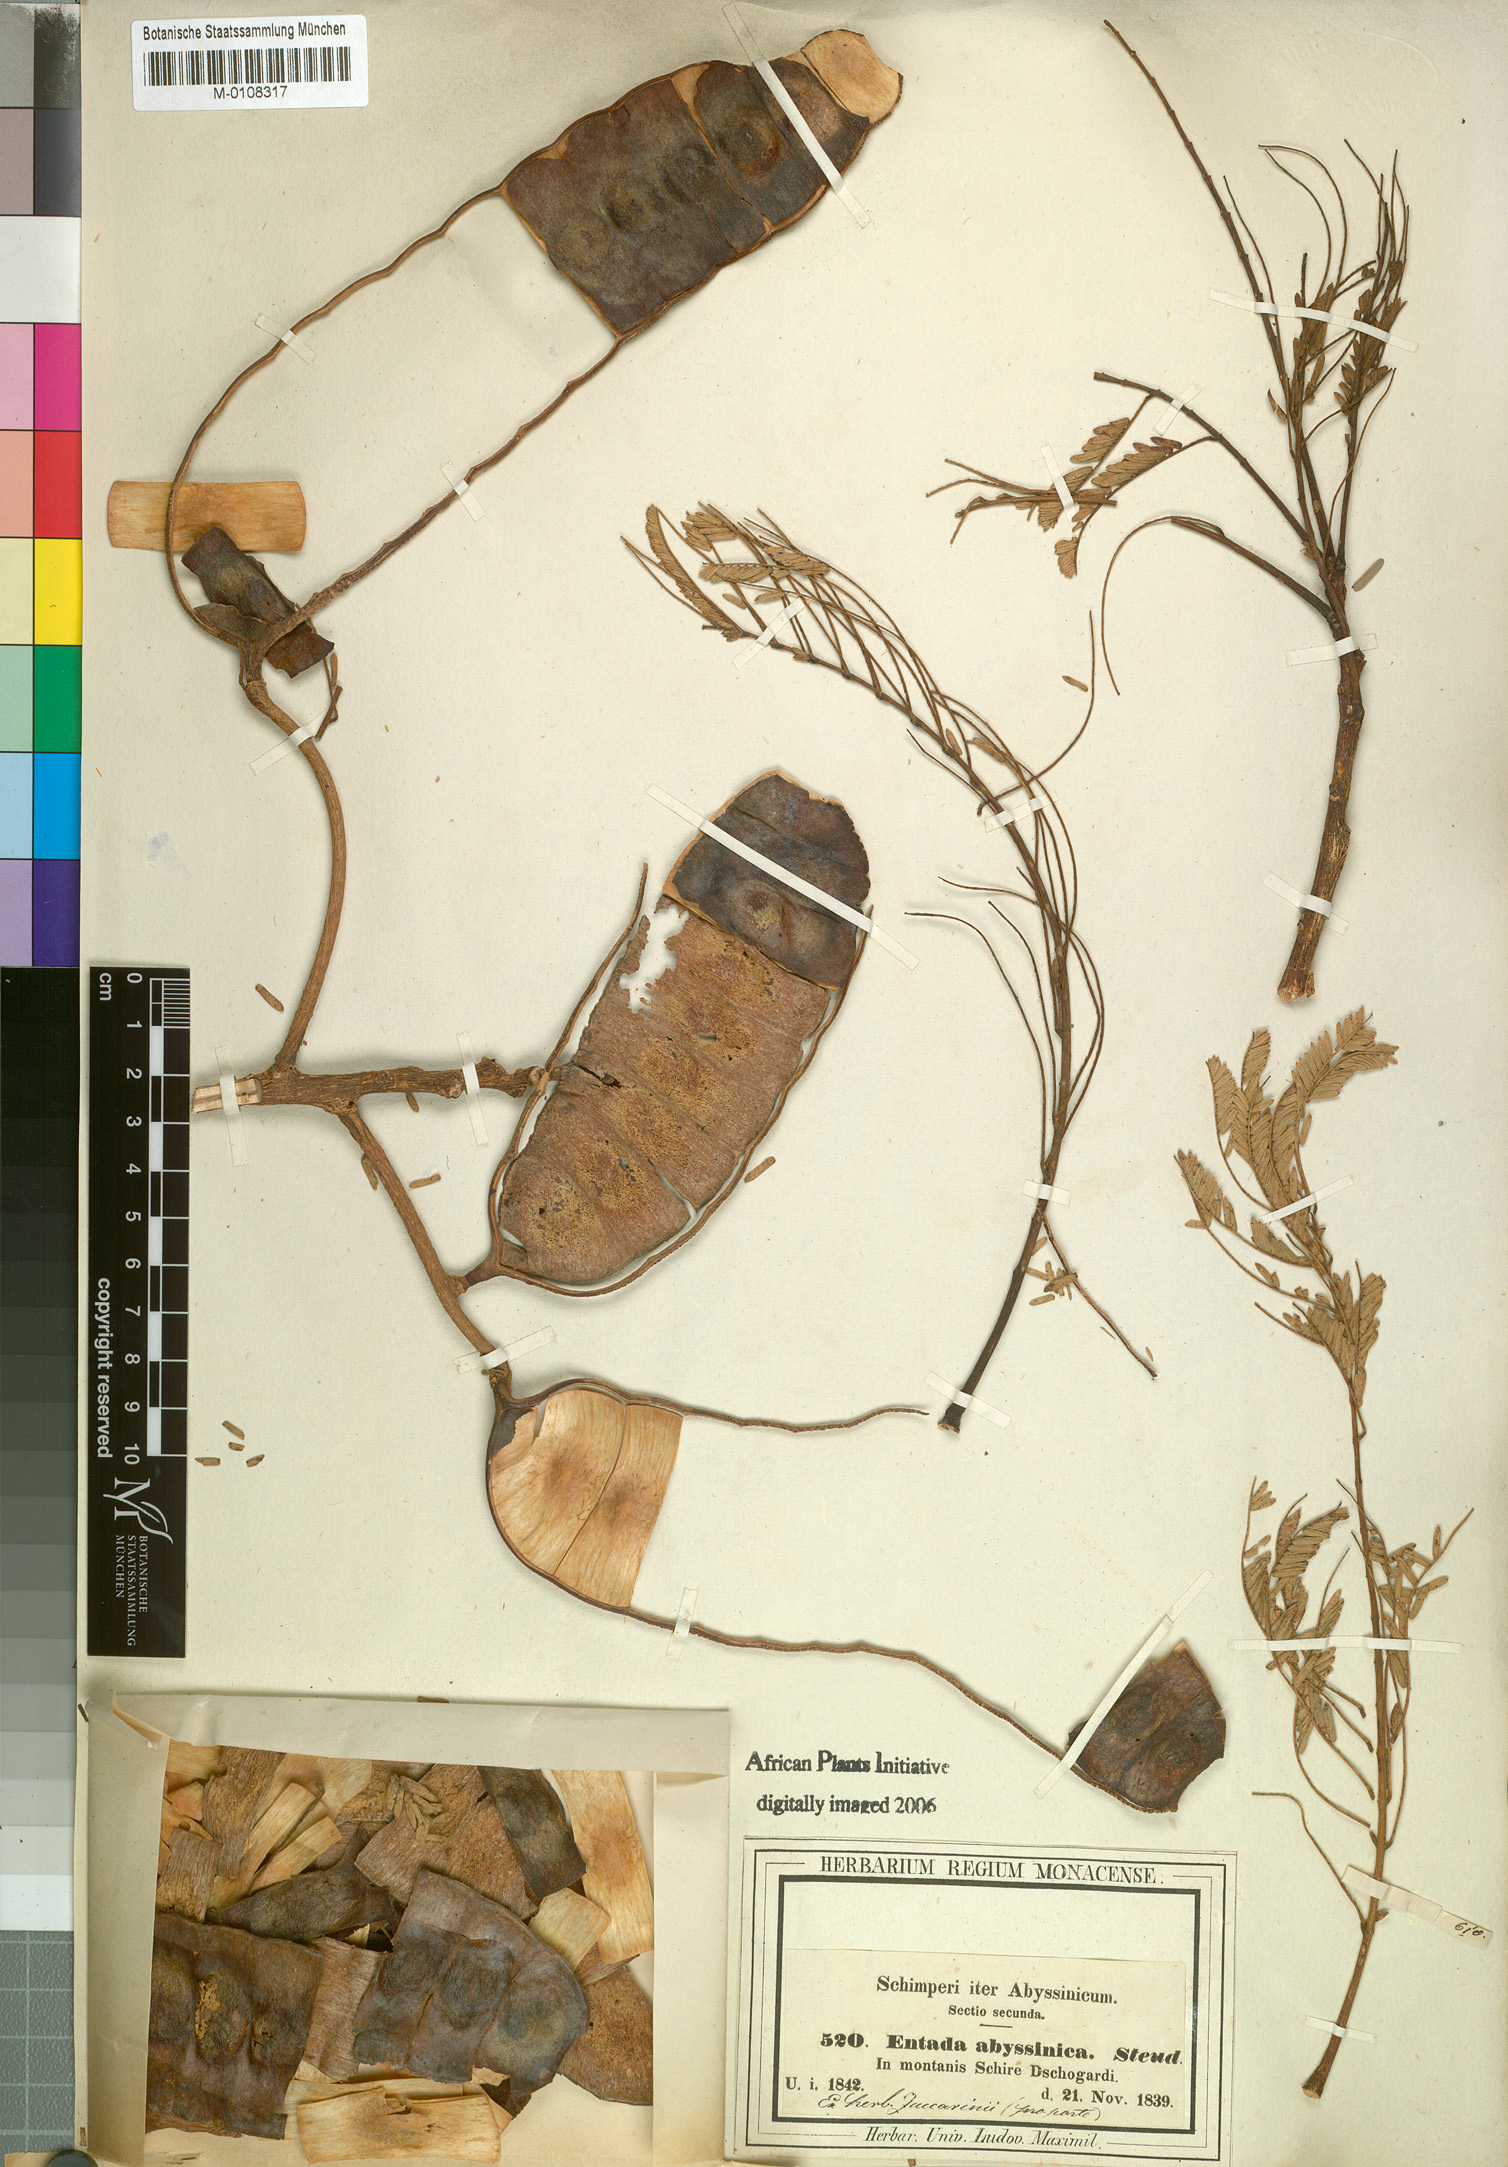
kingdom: Plantae
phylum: Tracheophyta
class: Magnoliopsida
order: Fabales
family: Fabaceae
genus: Entada
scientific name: Entada abyssinica
